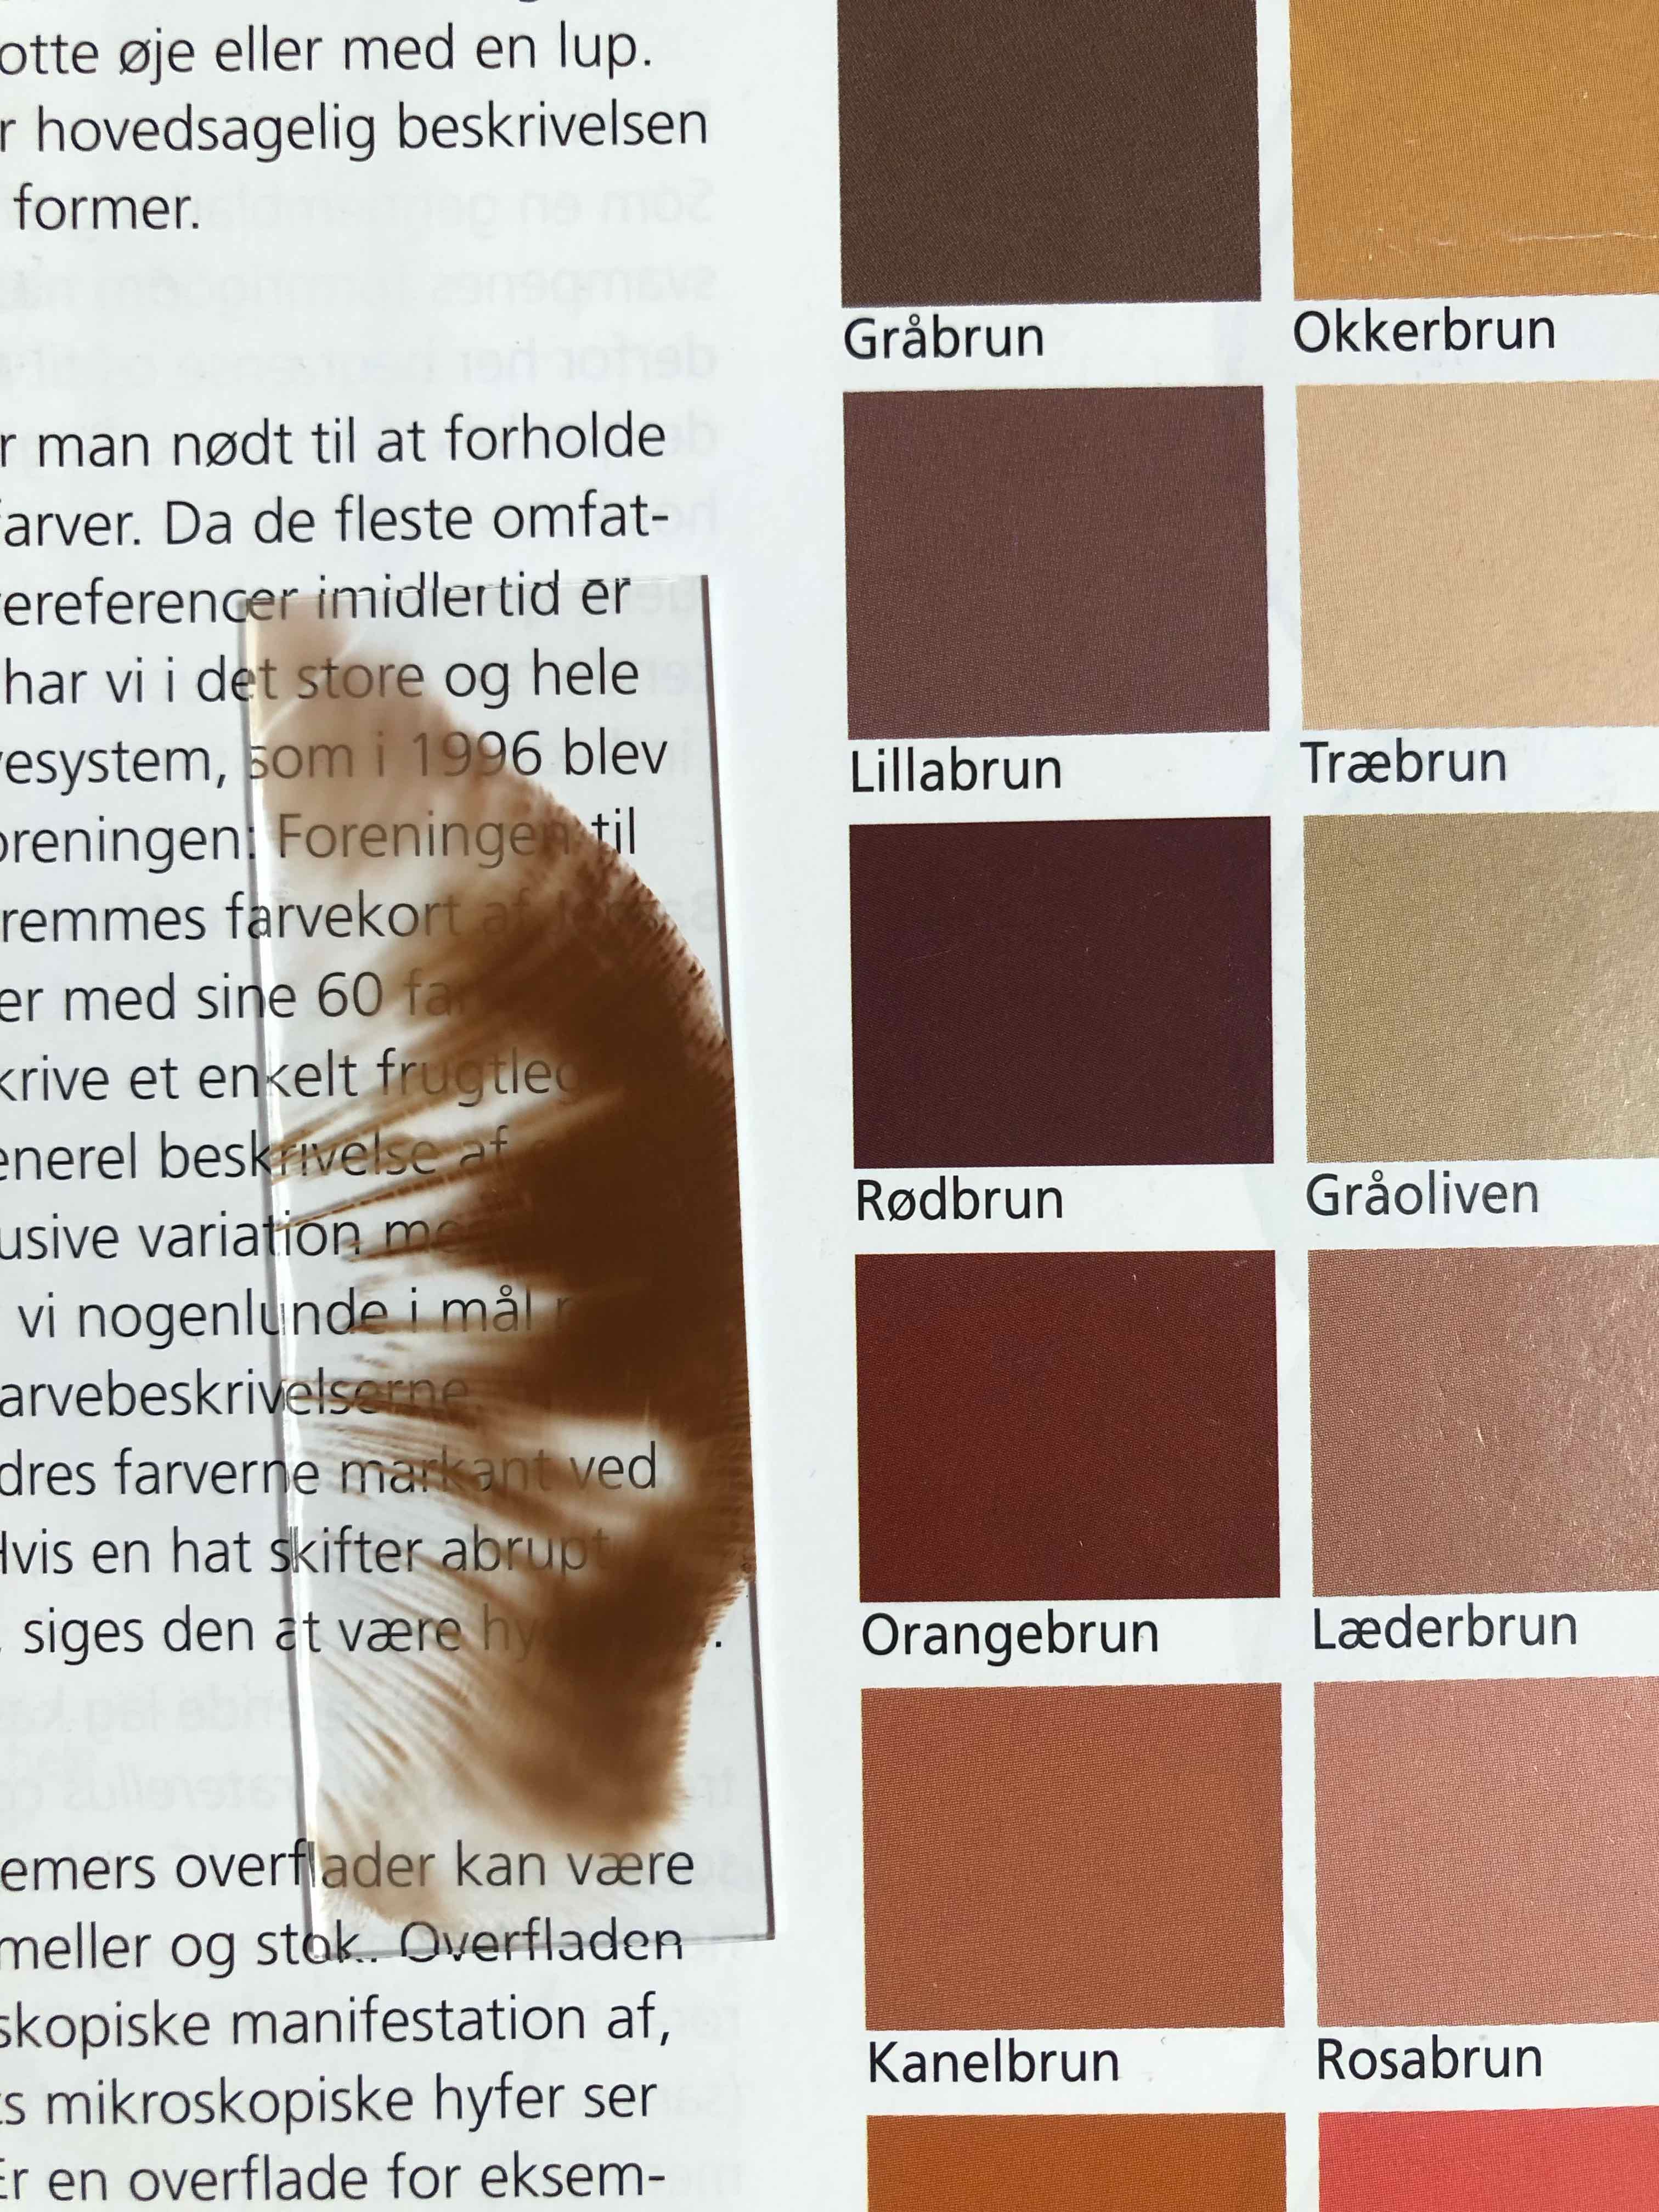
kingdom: Fungi
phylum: Basidiomycota
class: Agaricomycetes
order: Boletales
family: Paxillaceae
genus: Paxillus
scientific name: Paxillus obscurisporus
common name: mahognisporet netbladhat
